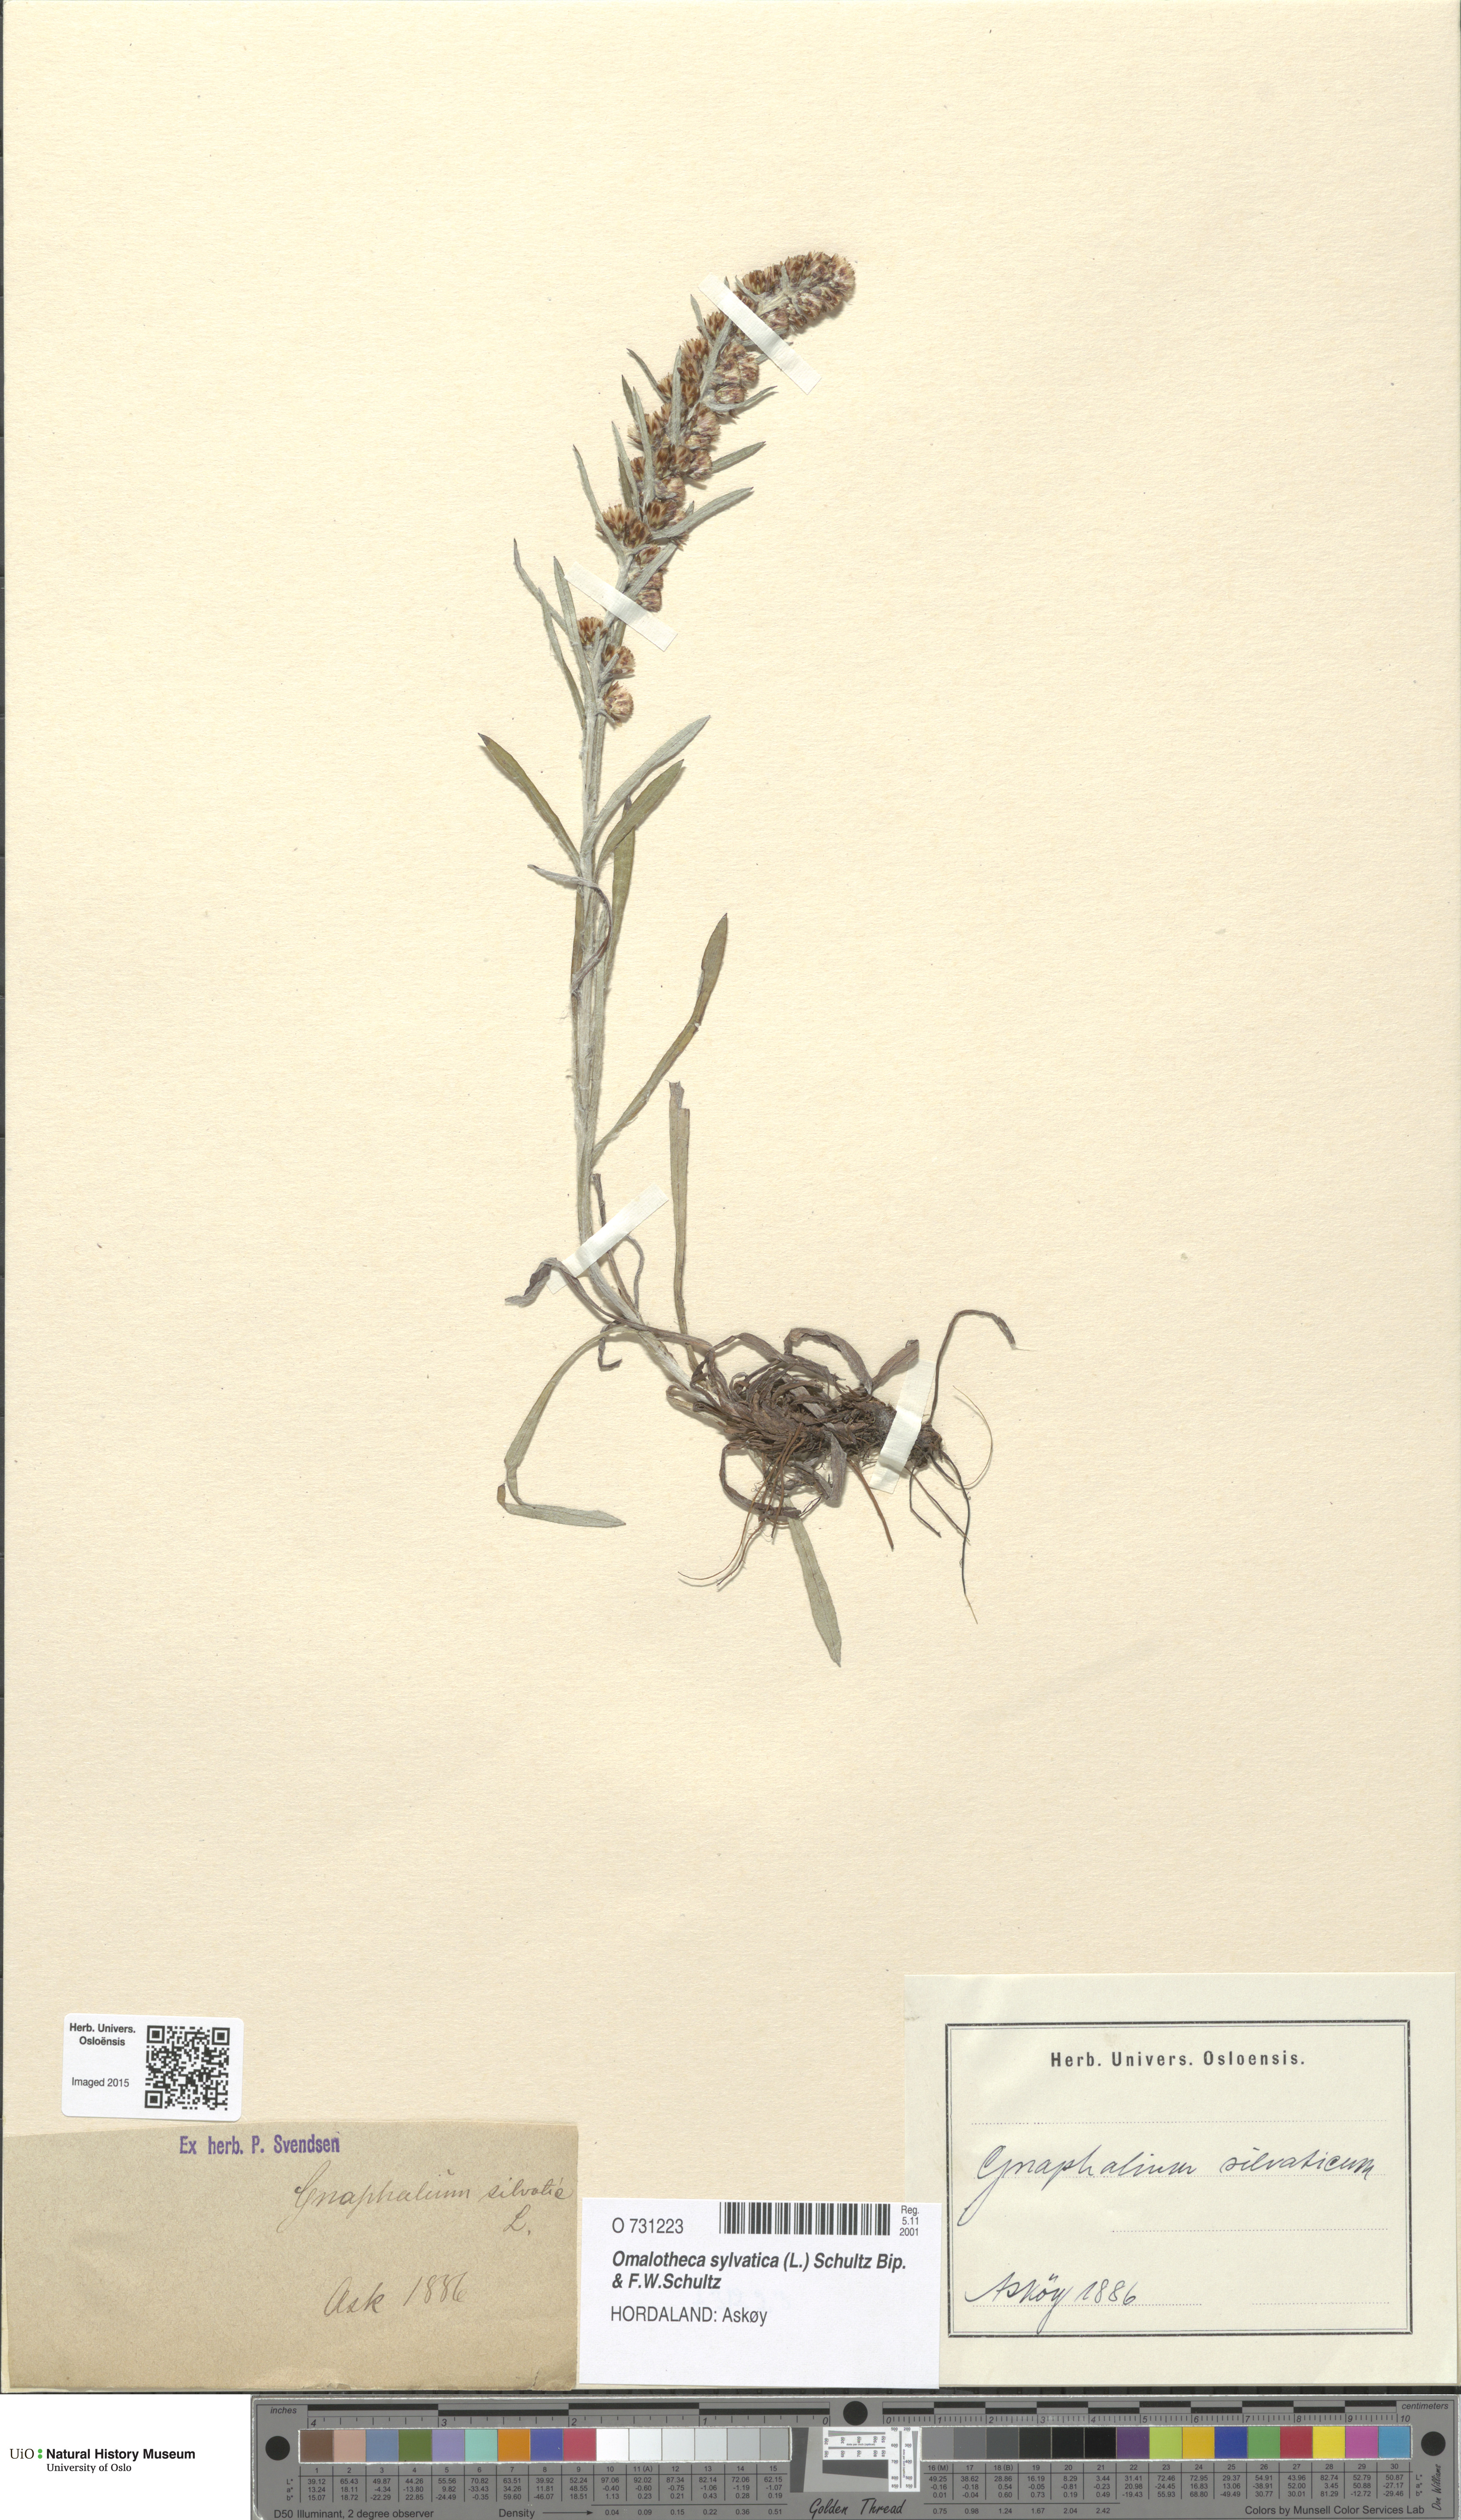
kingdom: Plantae
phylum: Tracheophyta
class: Magnoliopsida
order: Asterales
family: Asteraceae
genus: Omalotheca
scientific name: Omalotheca sylvatica
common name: Heath cudweed
